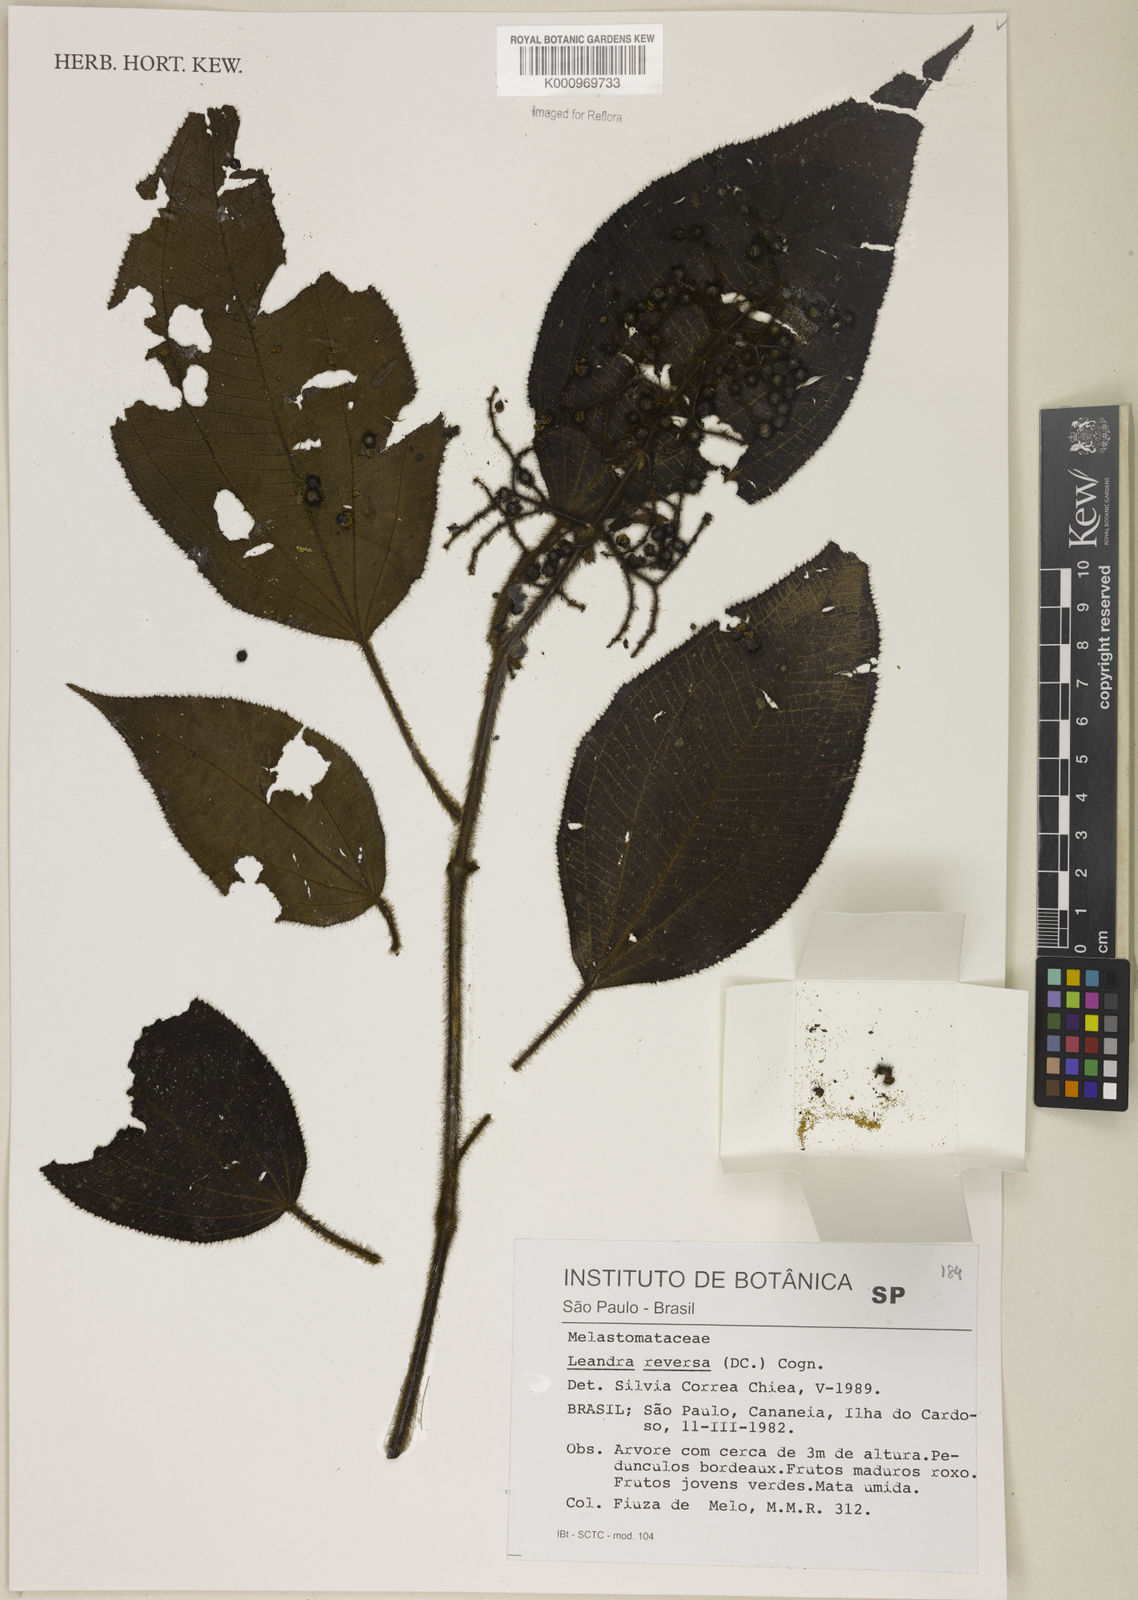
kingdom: Plantae
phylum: Tracheophyta
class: Magnoliopsida
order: Myrtales
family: Melastomataceae
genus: Miconia
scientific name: Miconia reversa
